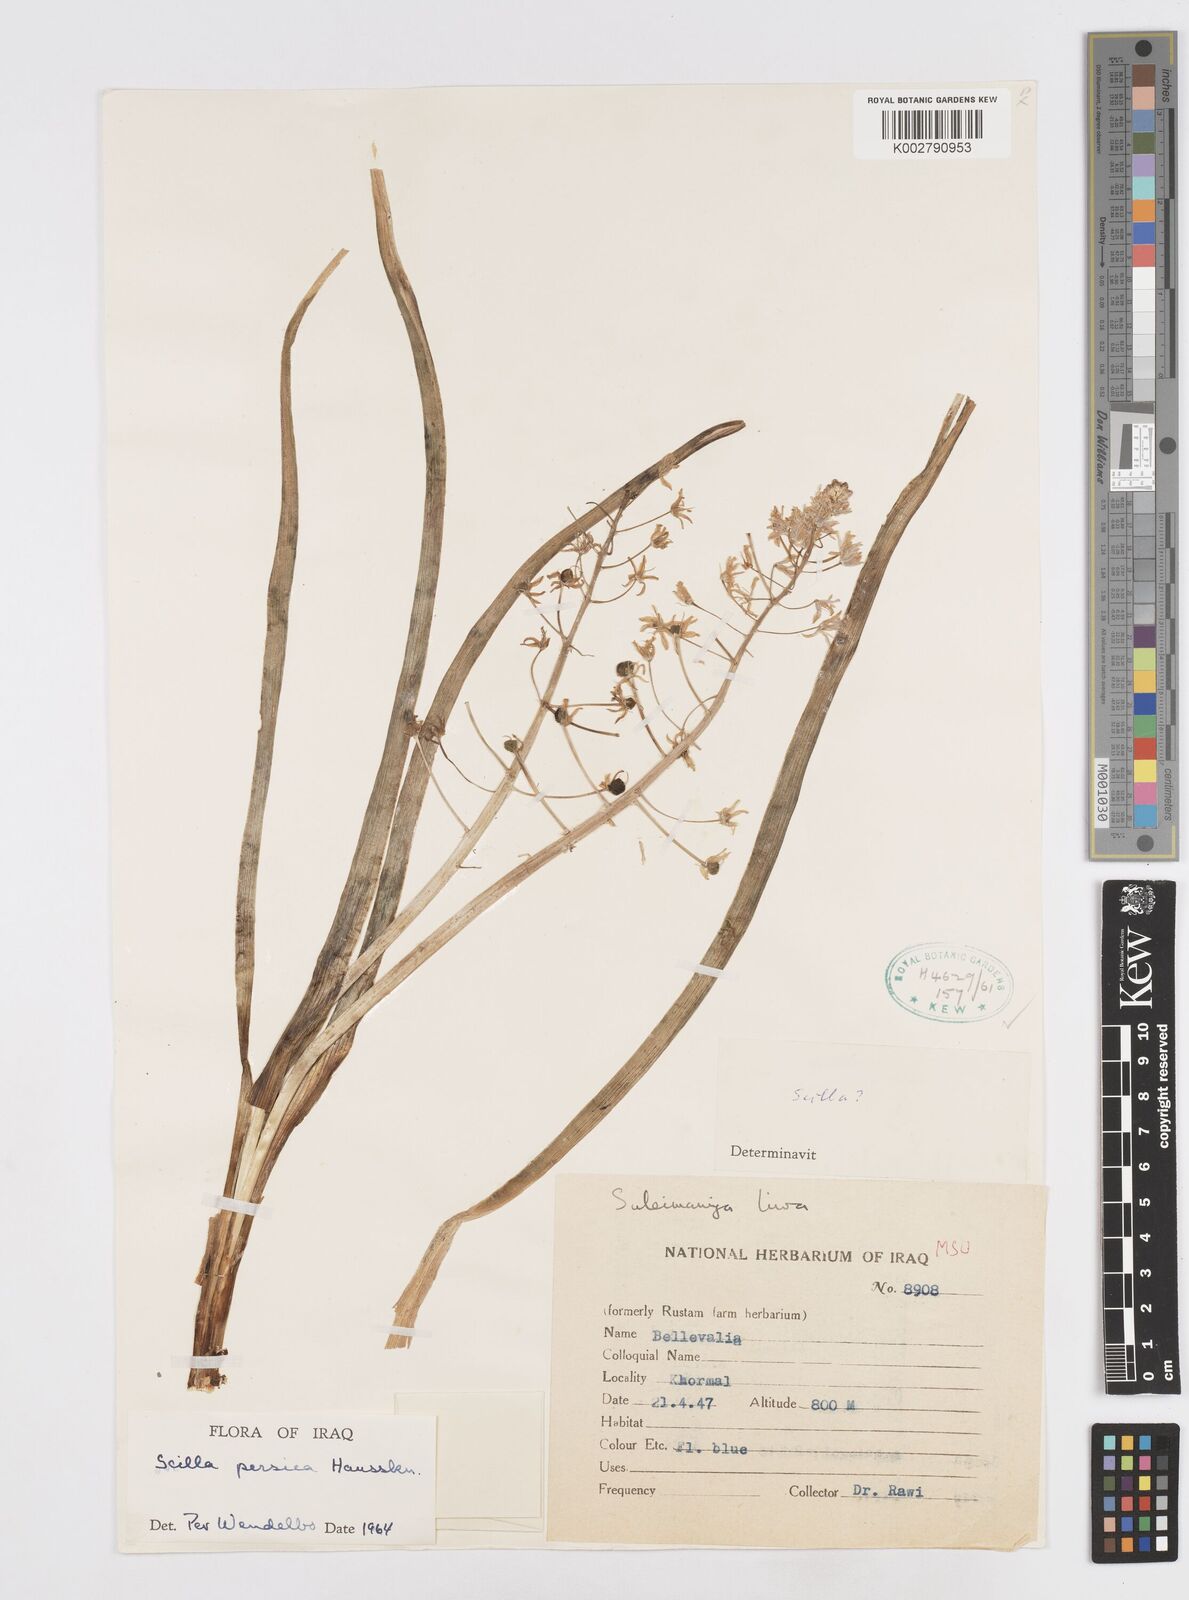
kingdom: Plantae
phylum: Tracheophyta
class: Liliopsida
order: Asparagales
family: Asparagaceae
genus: Zagrosia
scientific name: Zagrosia persica
